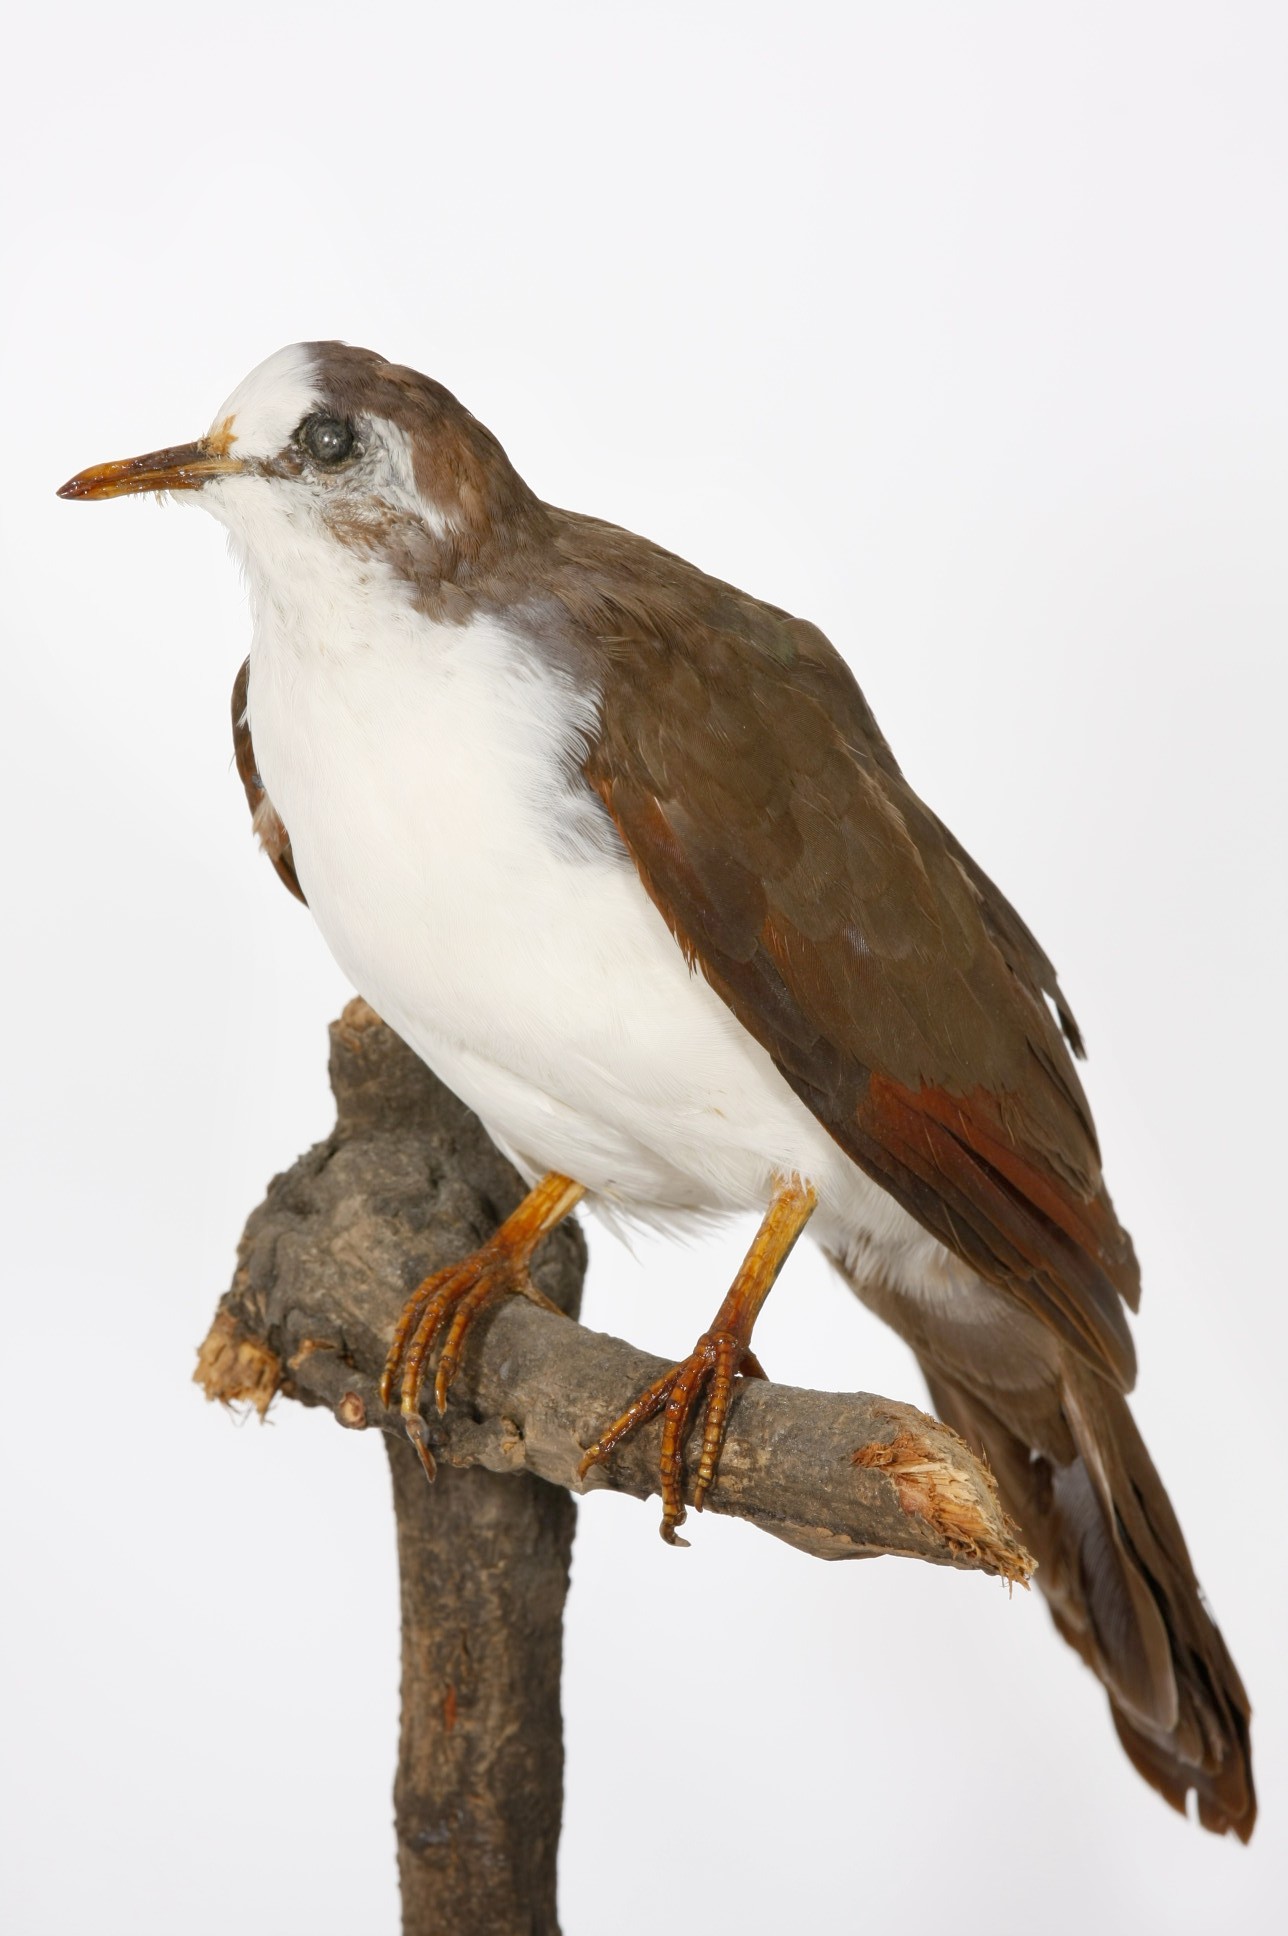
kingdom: Animalia
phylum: Chordata
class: Aves
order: Columbiformes
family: Columbidae
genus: Turtur
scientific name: Turtur tympanistria
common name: Tambourine dove
